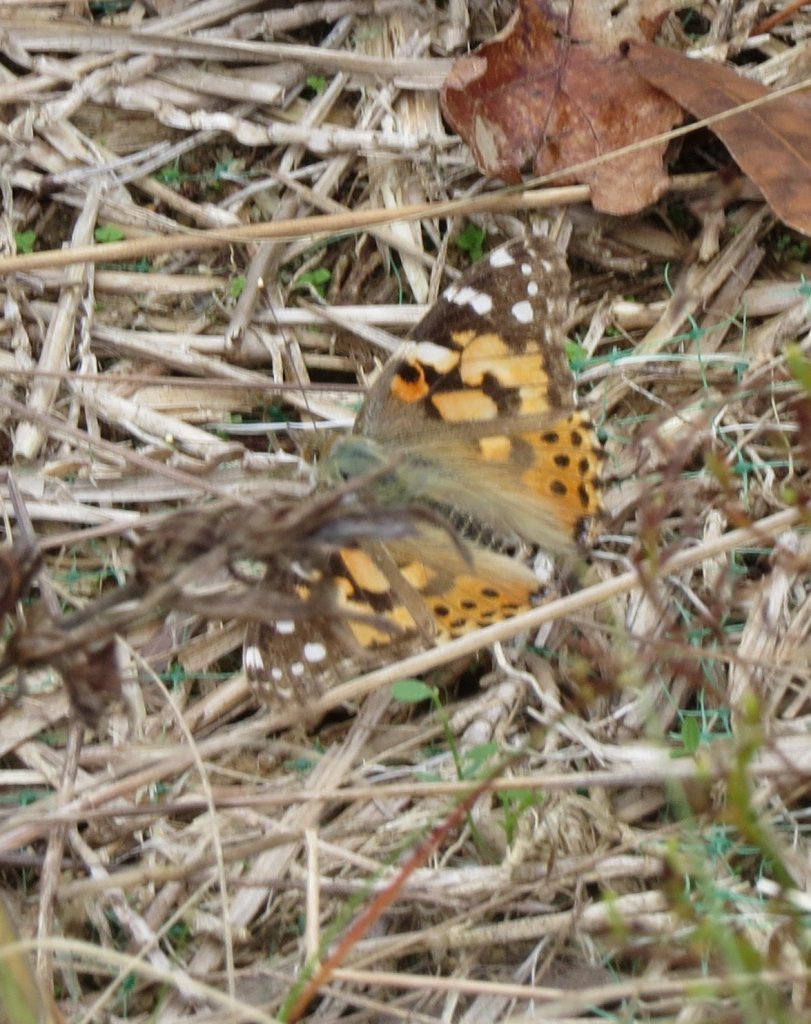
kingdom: Animalia
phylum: Arthropoda
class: Insecta
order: Lepidoptera
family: Nymphalidae
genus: Vanessa
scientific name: Vanessa cardui
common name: Painted Lady
